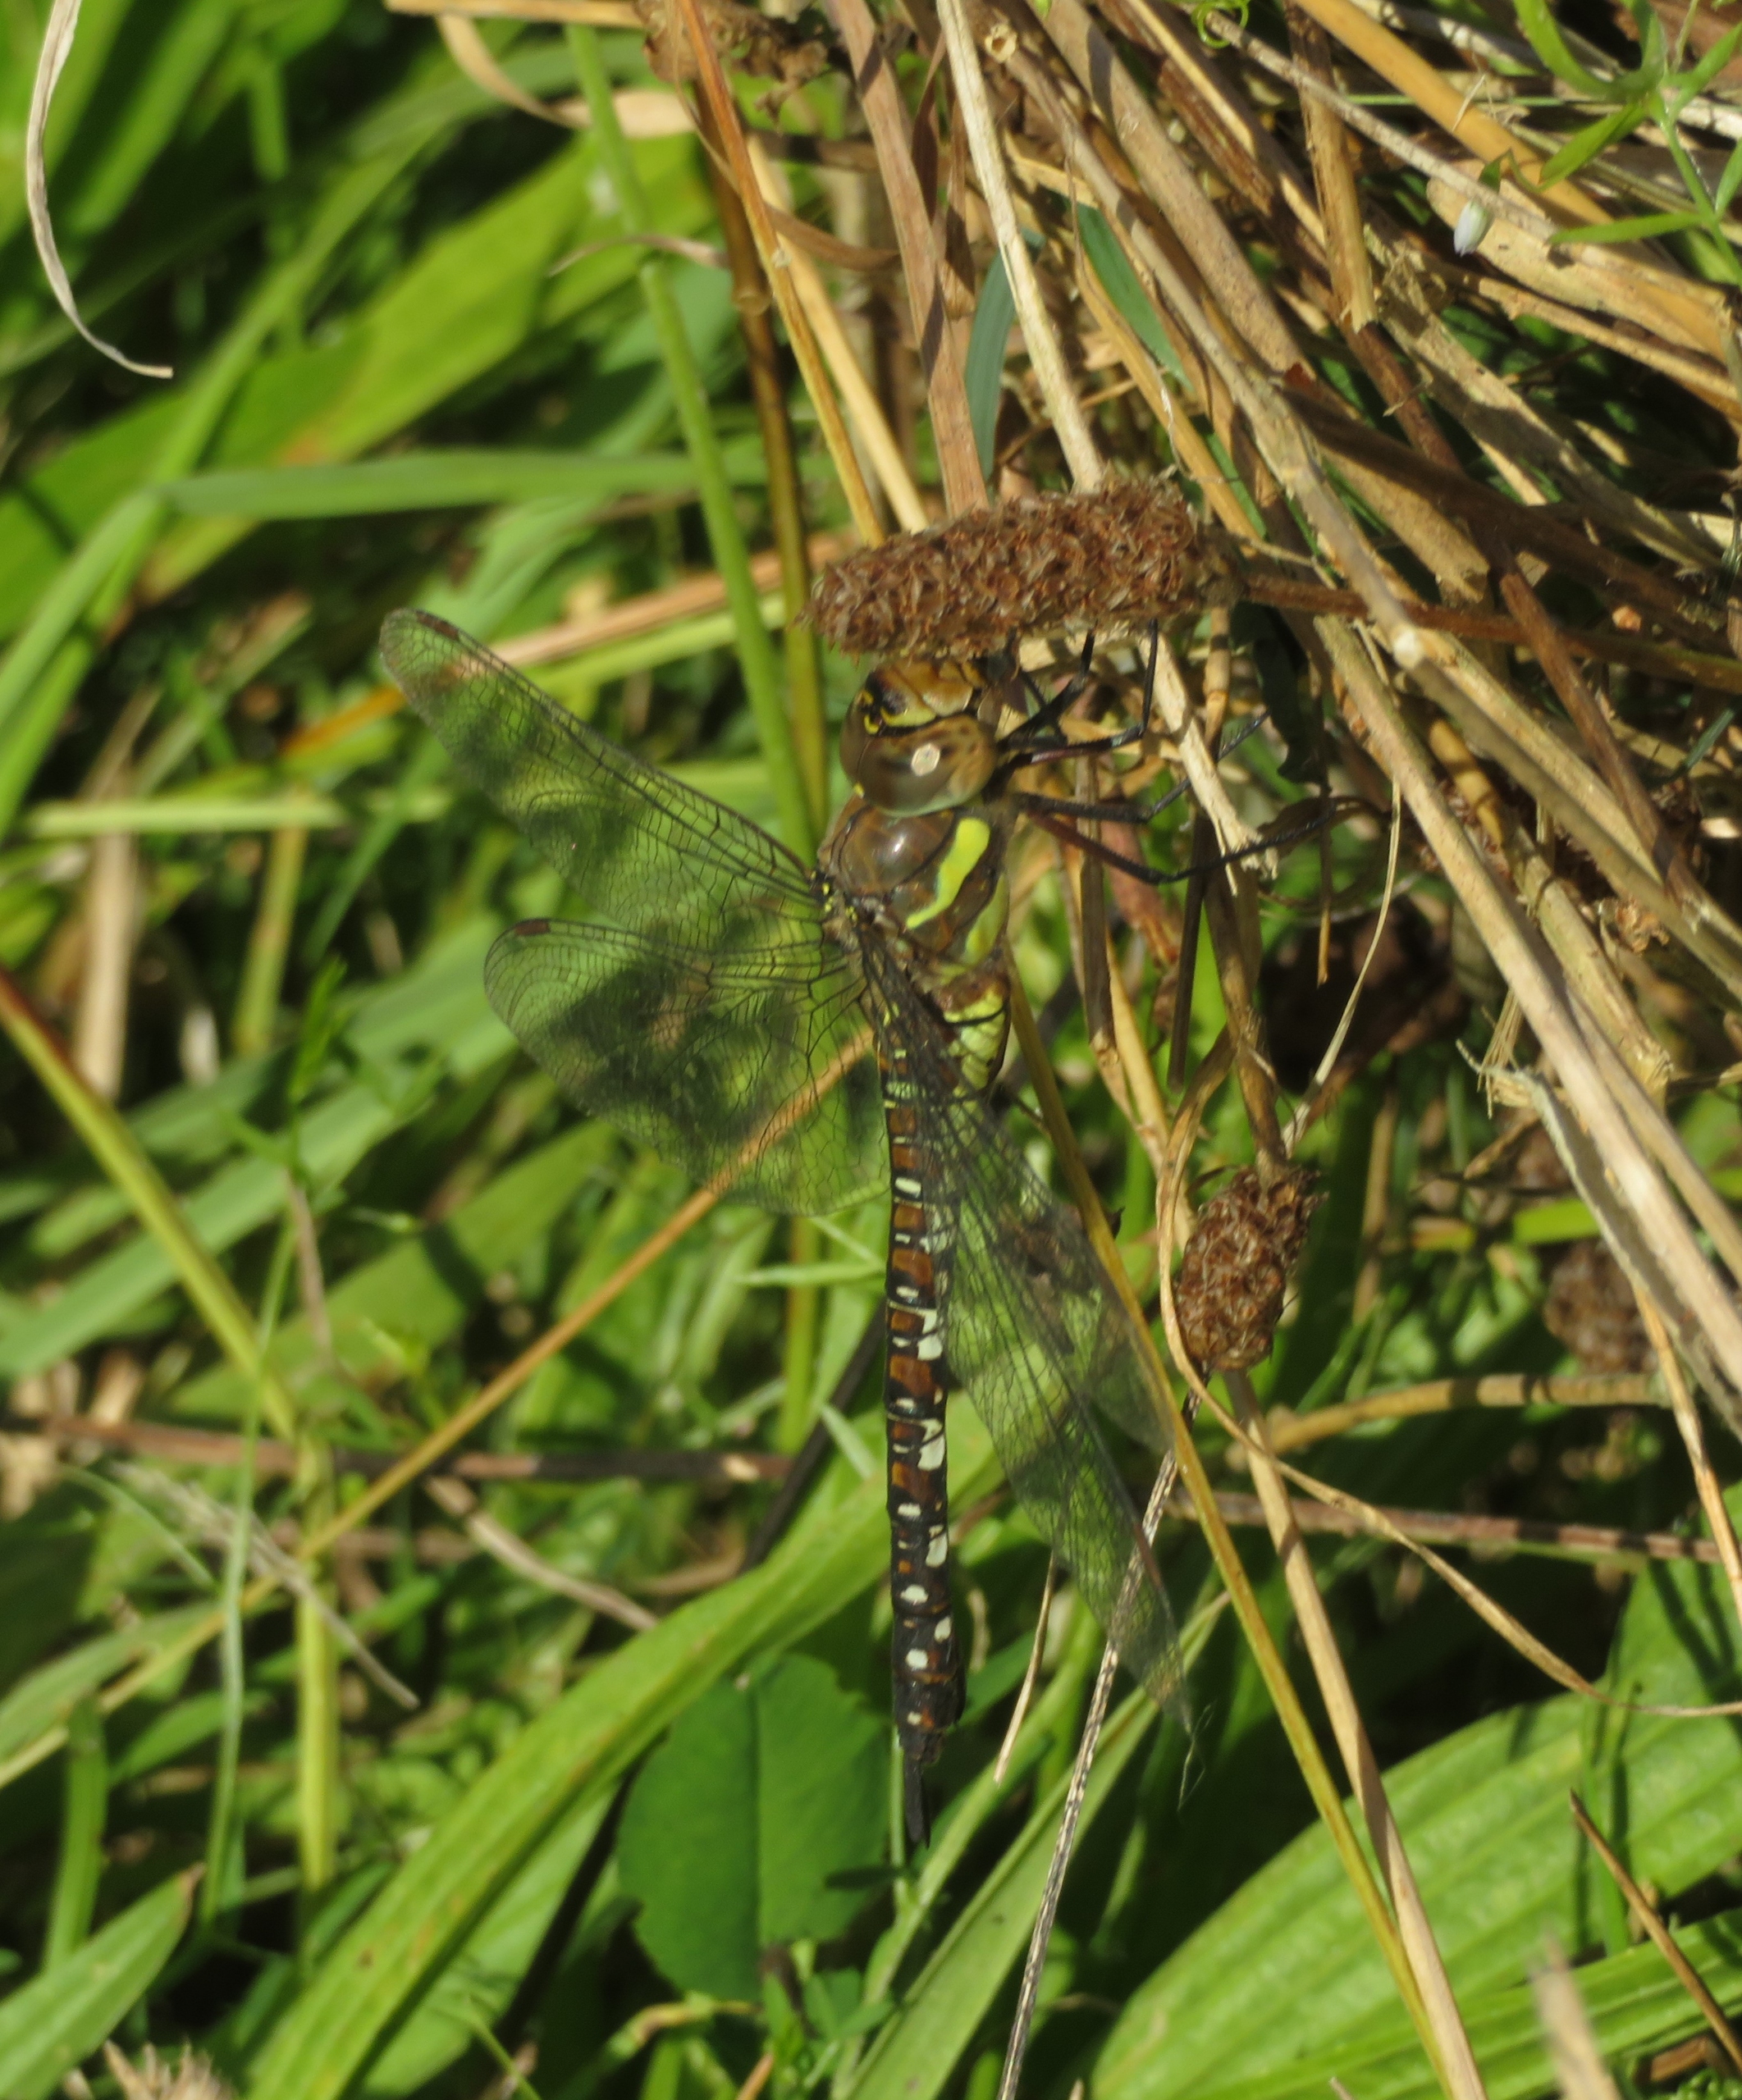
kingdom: Animalia
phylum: Arthropoda
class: Insecta
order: Odonata
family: Aeshnidae
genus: Aeshna
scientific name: Aeshna mixta
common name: Efterårs-mosaikguldsmed
